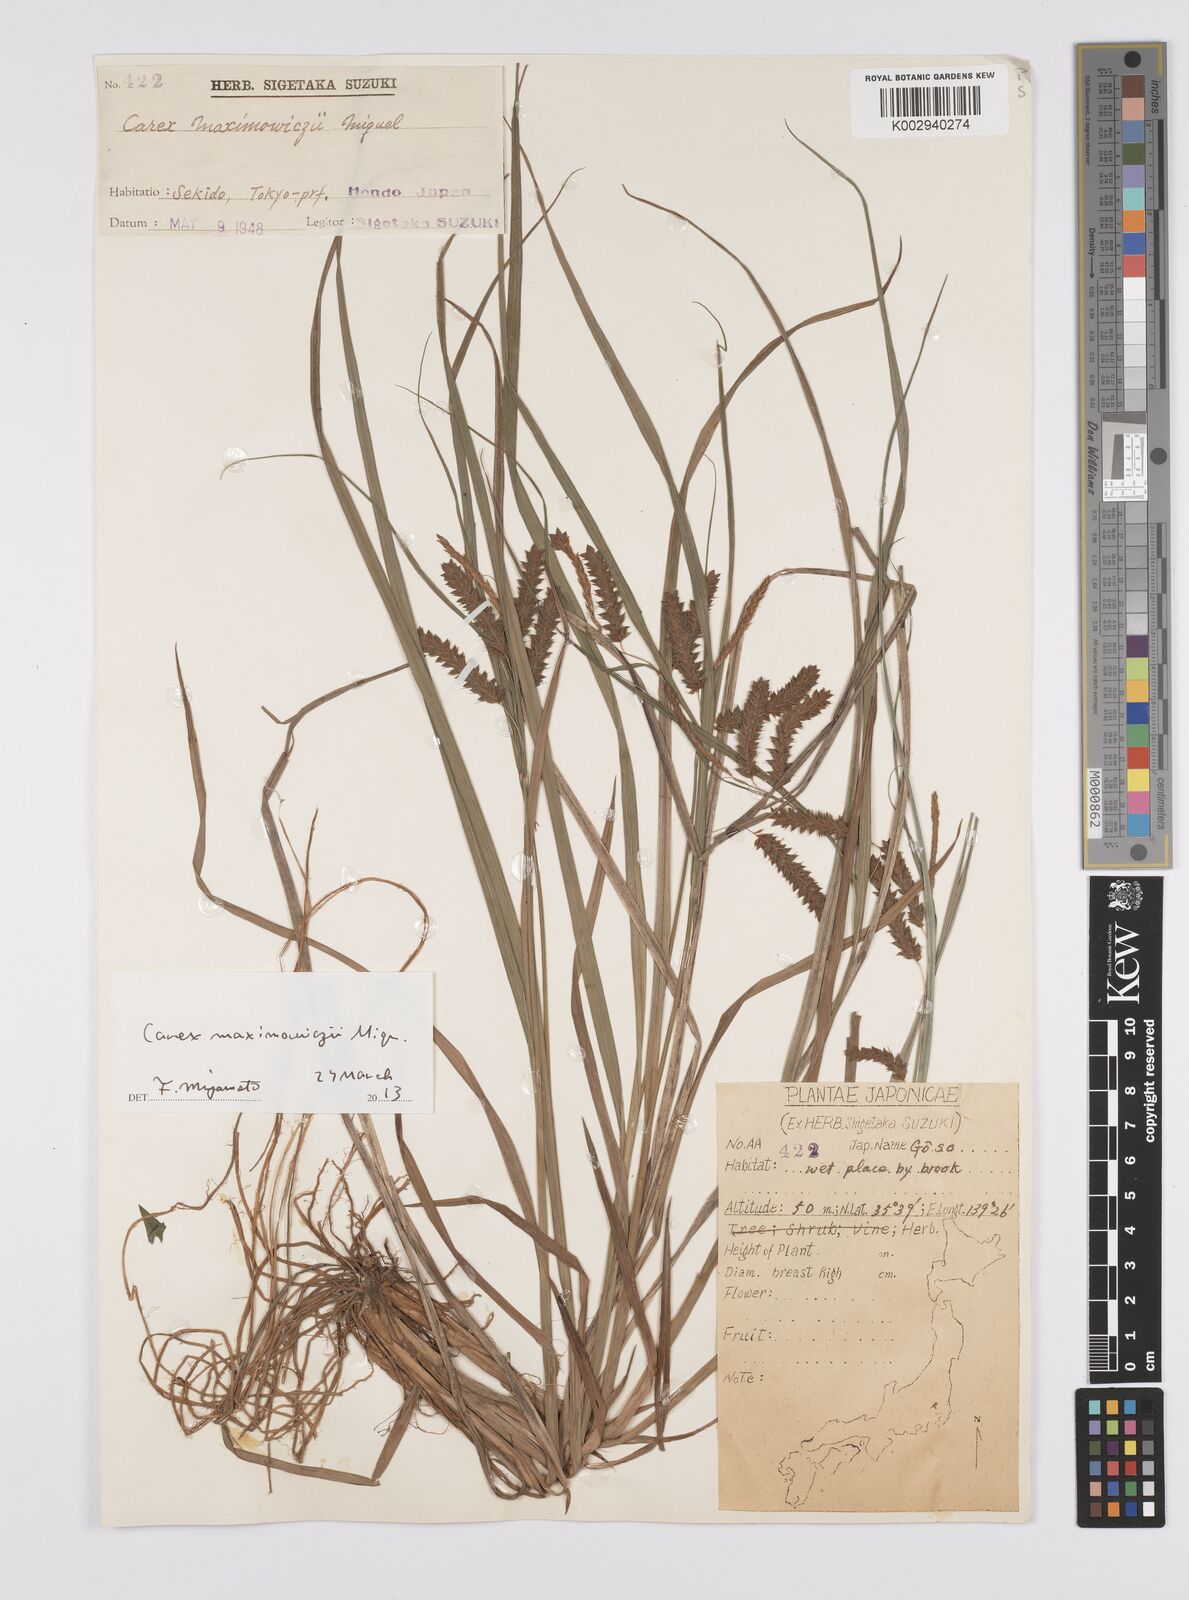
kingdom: Plantae
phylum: Tracheophyta
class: Liliopsida
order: Poales
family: Cyperaceae
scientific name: Cyperaceae
